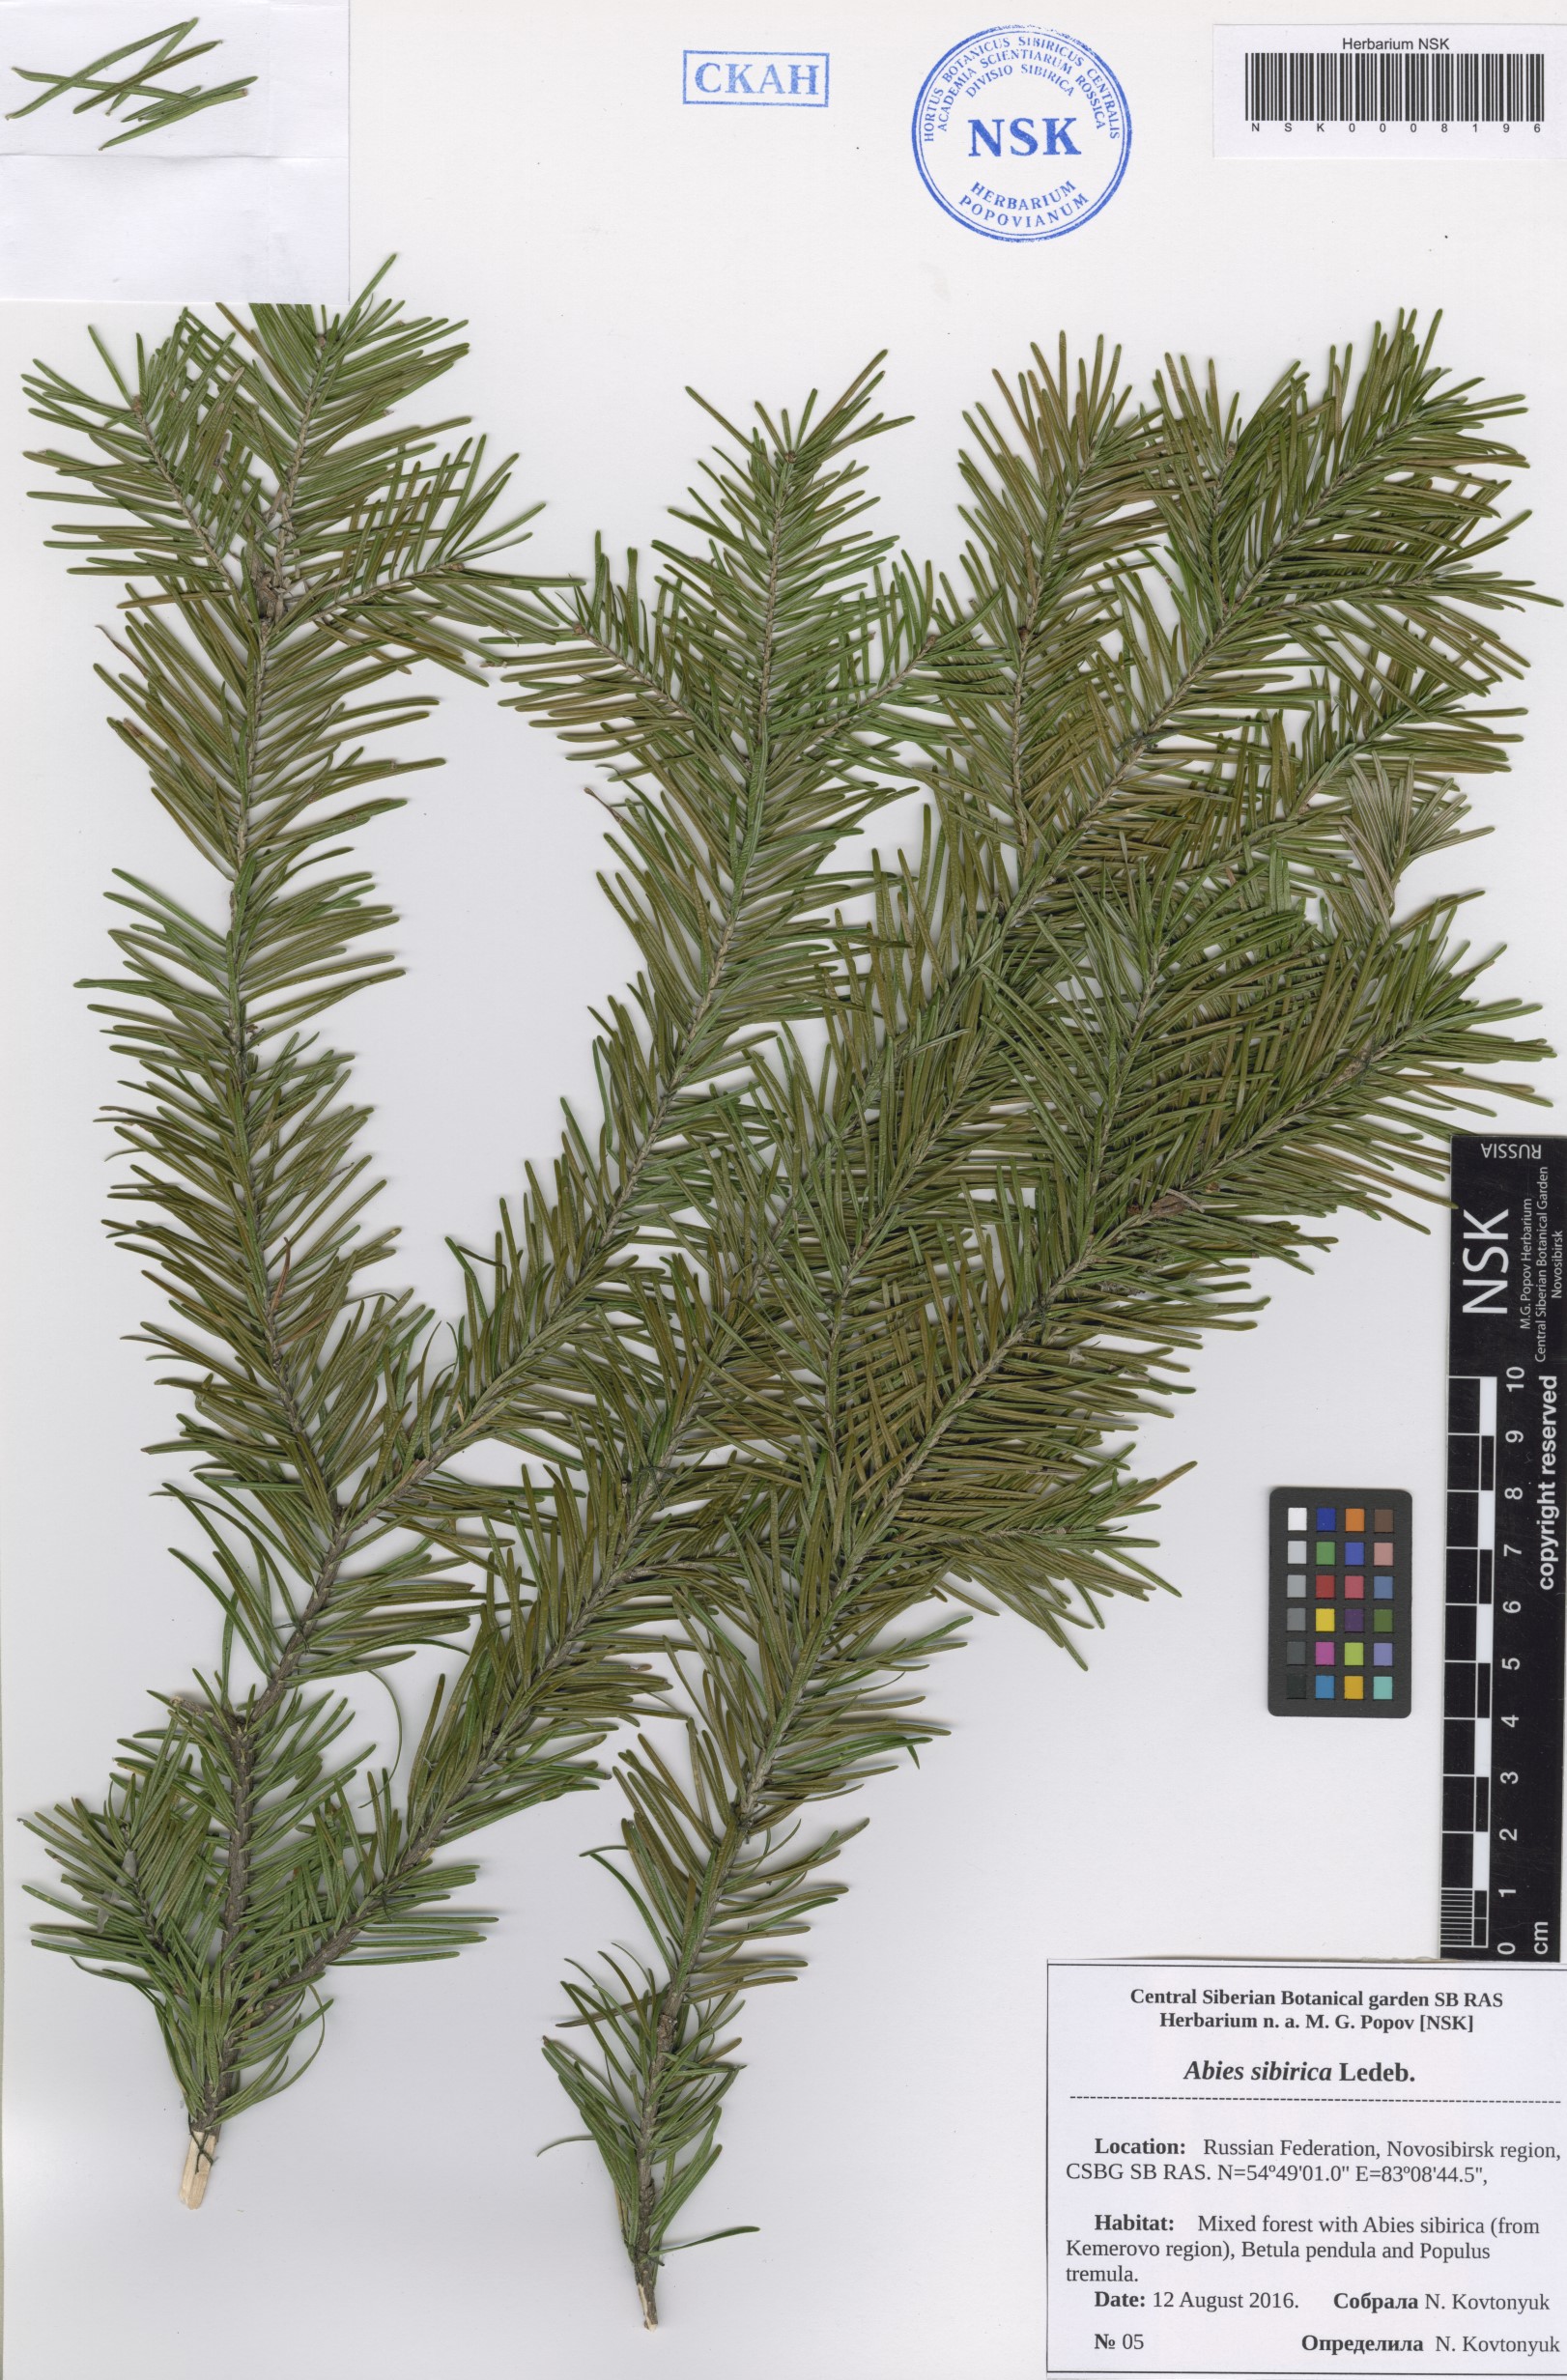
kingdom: Plantae
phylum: Tracheophyta
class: Pinopsida
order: Pinales
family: Pinaceae
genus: Abies
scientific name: Abies sibirica
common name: Siberian fir
